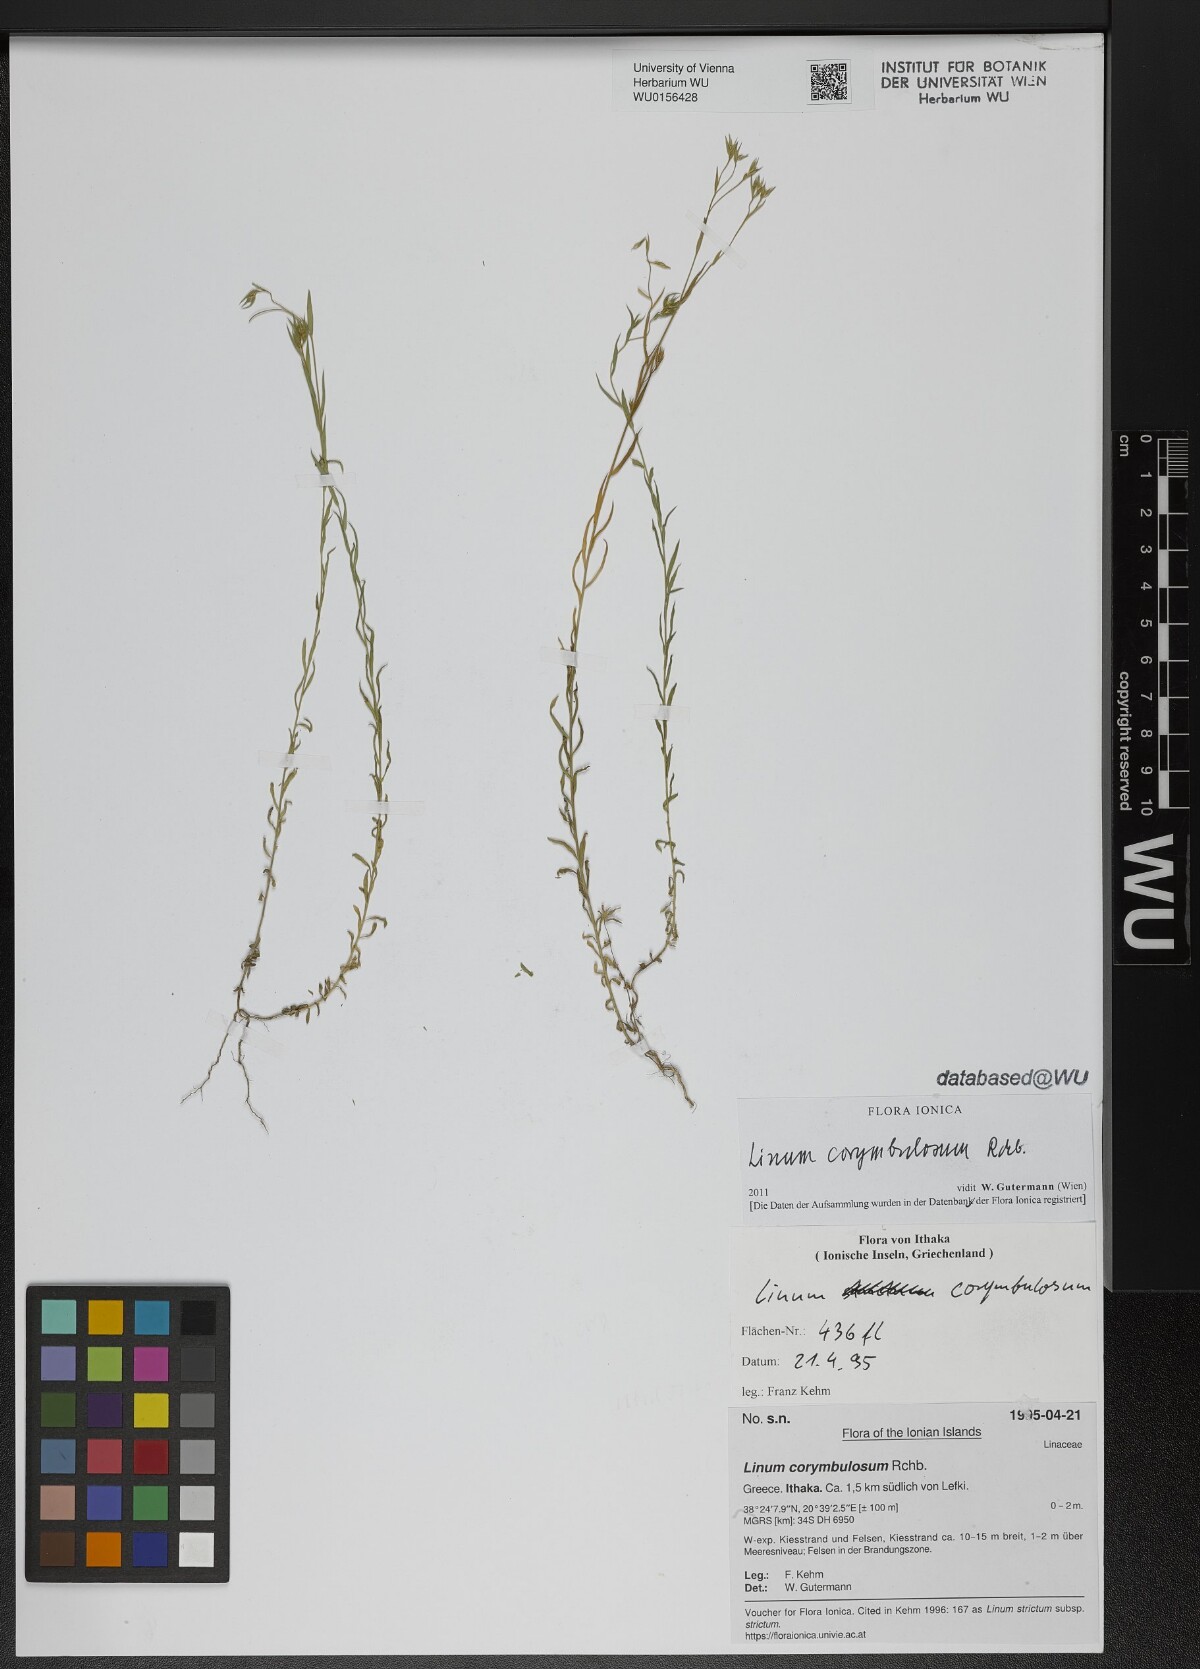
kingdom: Plantae
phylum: Tracheophyta
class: Magnoliopsida
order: Malpighiales
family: Linaceae
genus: Linum
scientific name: Linum corymbulosum
